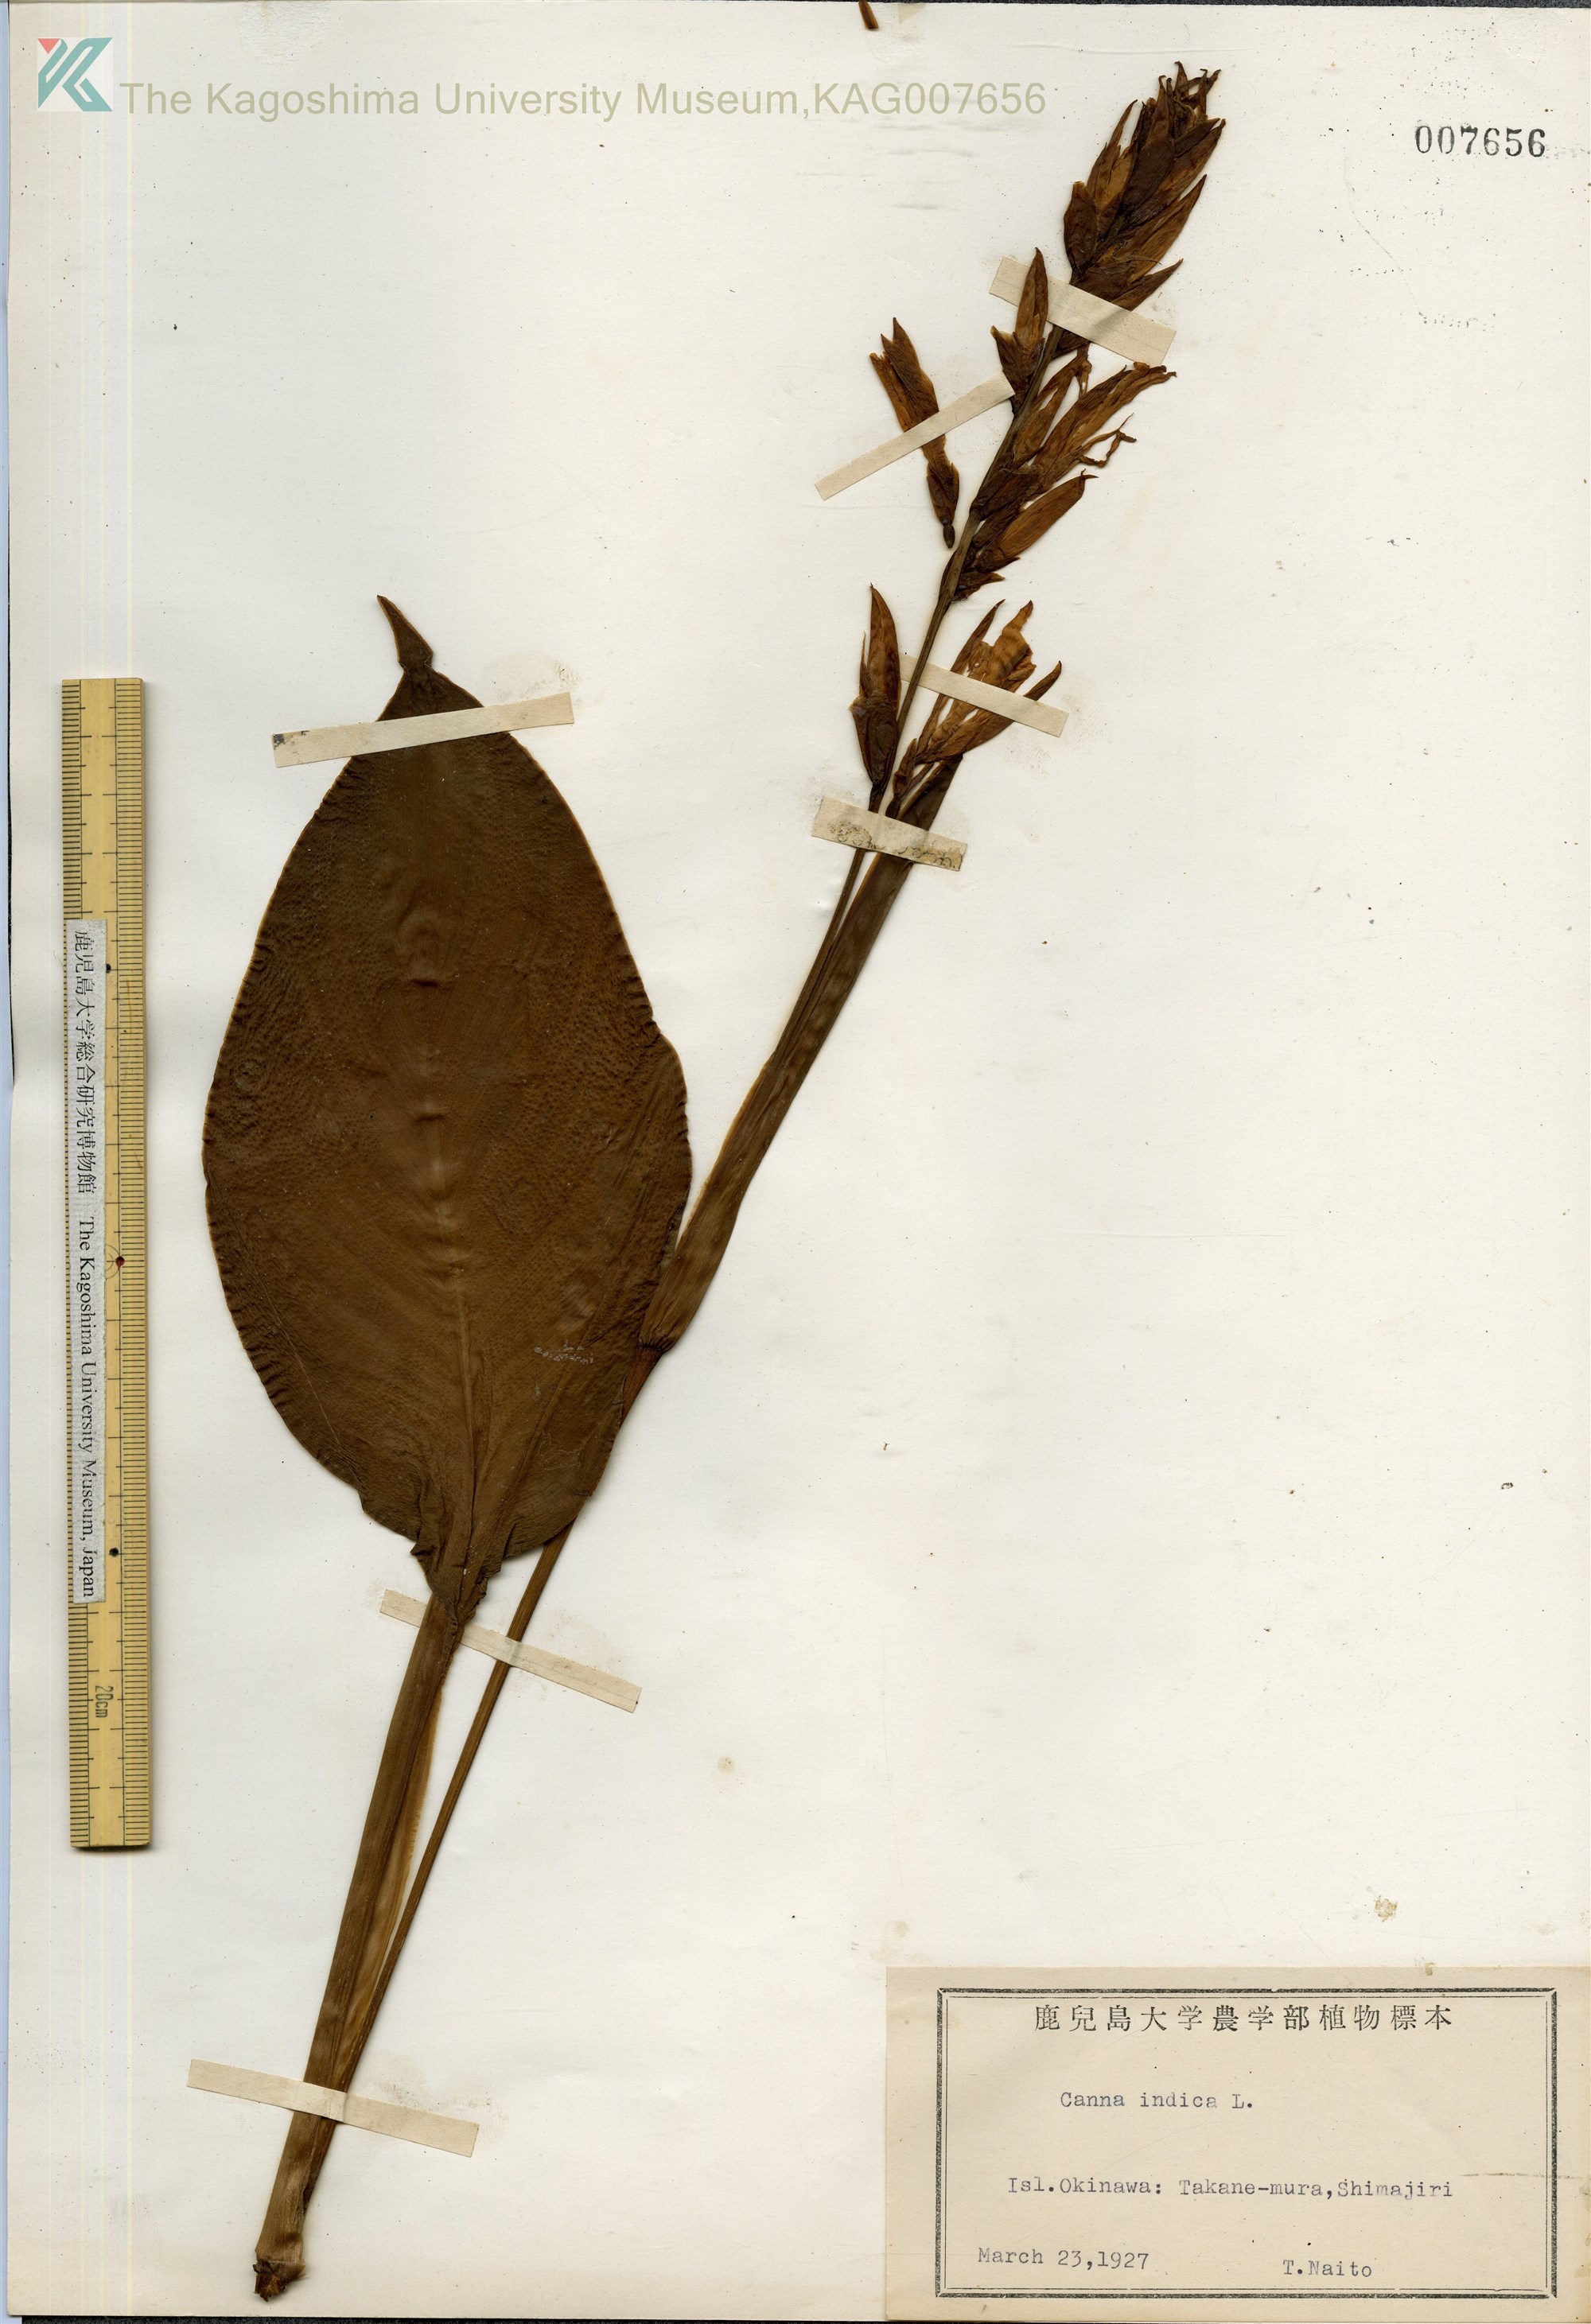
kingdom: Plantae
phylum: Tracheophyta
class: Liliopsida
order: Zingiberales
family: Cannaceae
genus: Canna
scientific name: Canna indica
